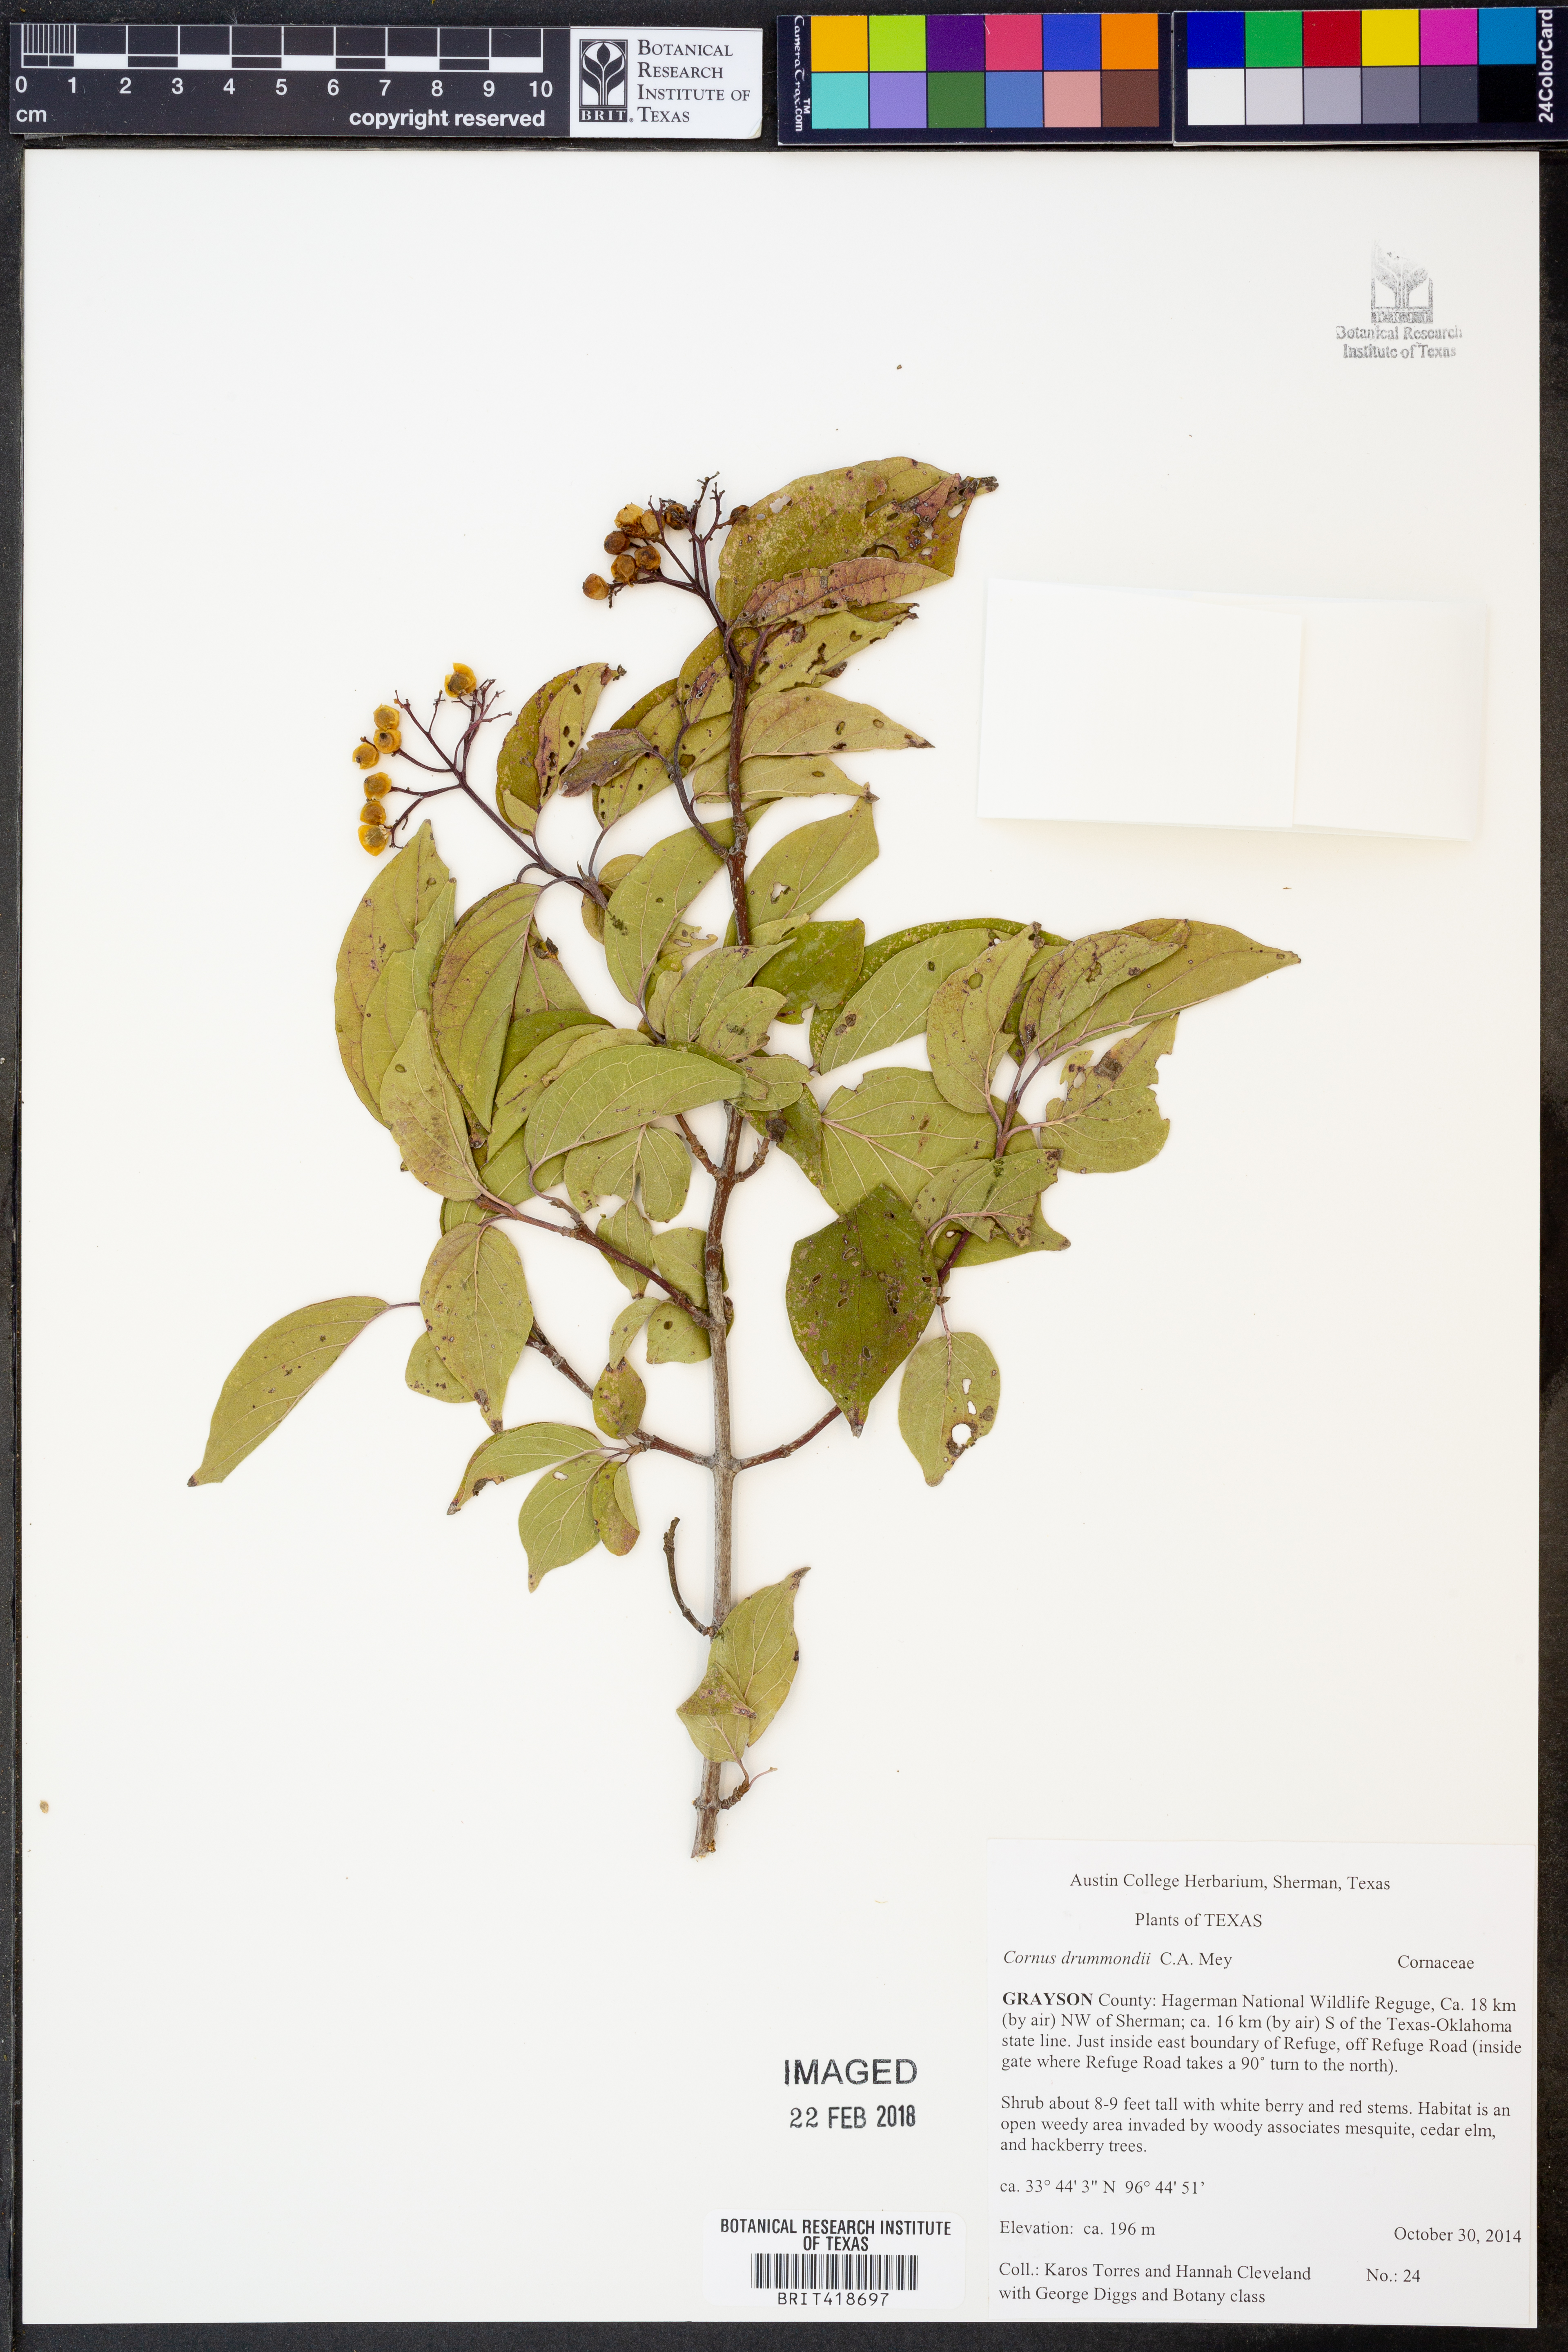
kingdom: Plantae
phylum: Tracheophyta
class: Magnoliopsida
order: Cornales
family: Cornaceae
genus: Cornus
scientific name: Cornus drummondii
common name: Rough-leaf dogwood
